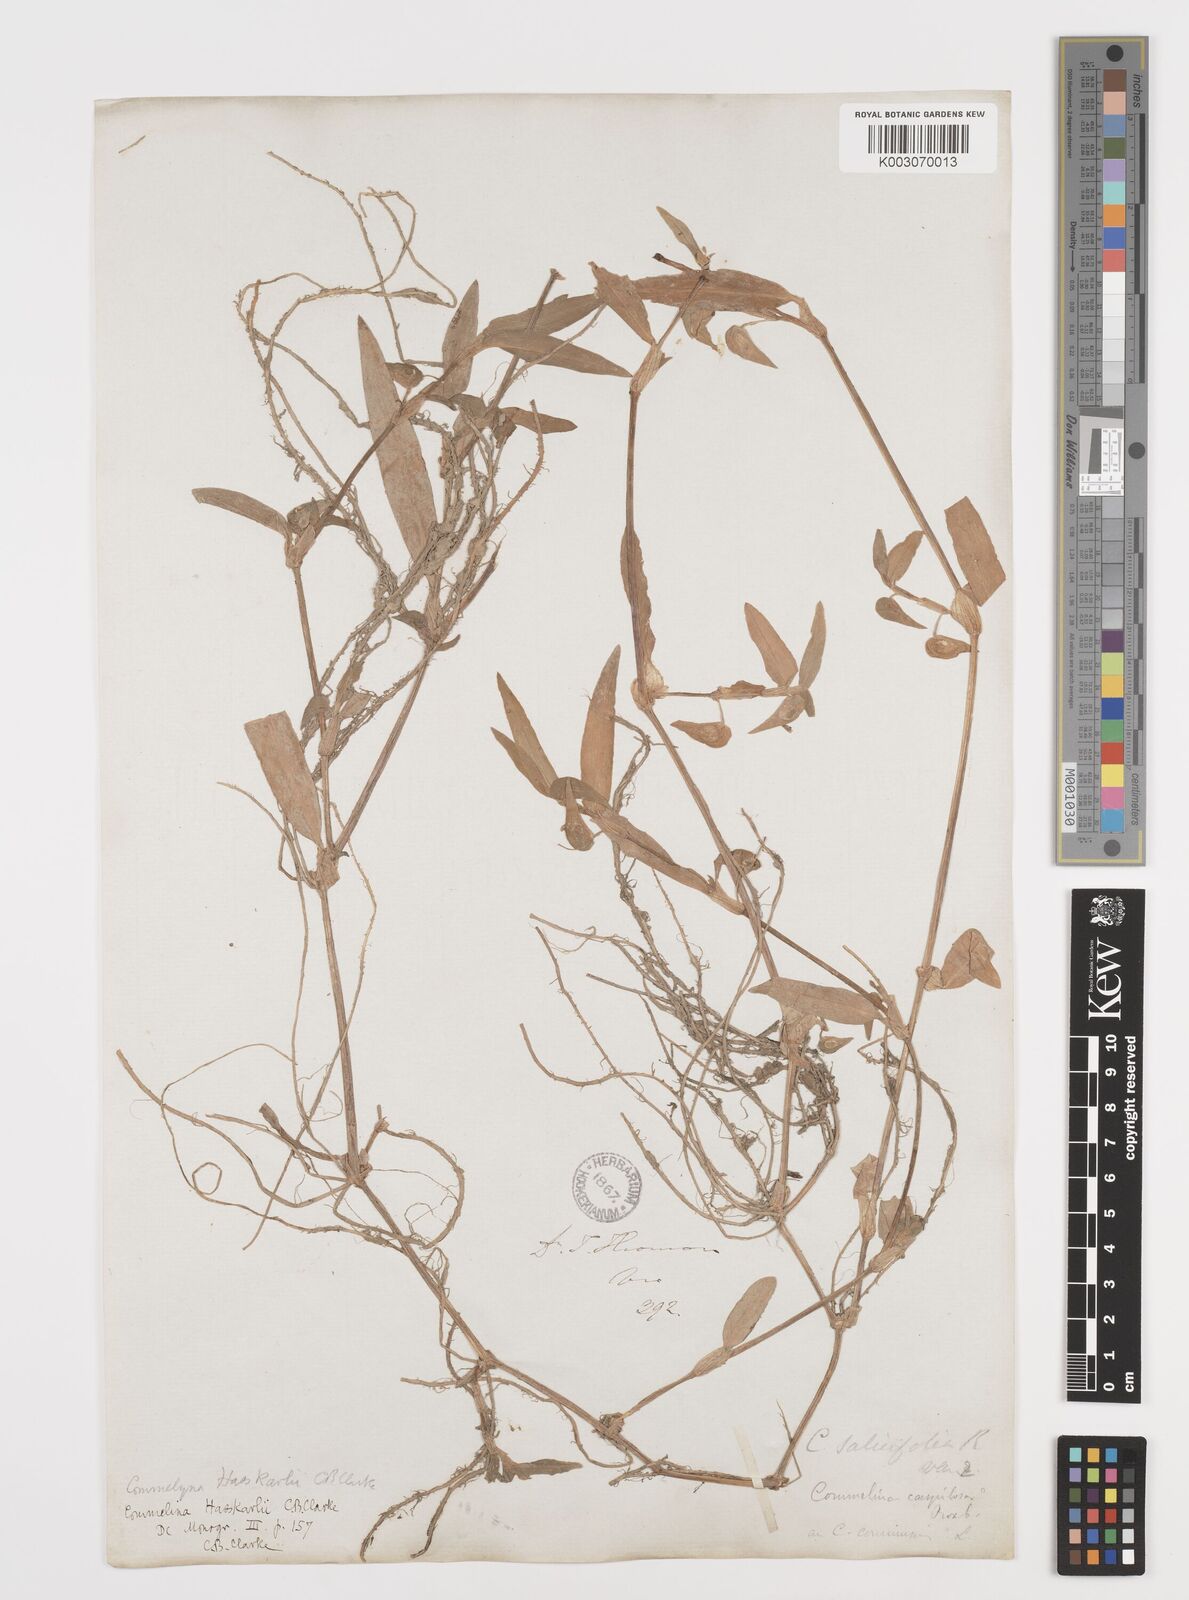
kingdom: Plantae
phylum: Tracheophyta
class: Liliopsida
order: Commelinales
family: Commelinaceae
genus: Commelina
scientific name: Commelina caroliniana
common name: Carolina dayflower
